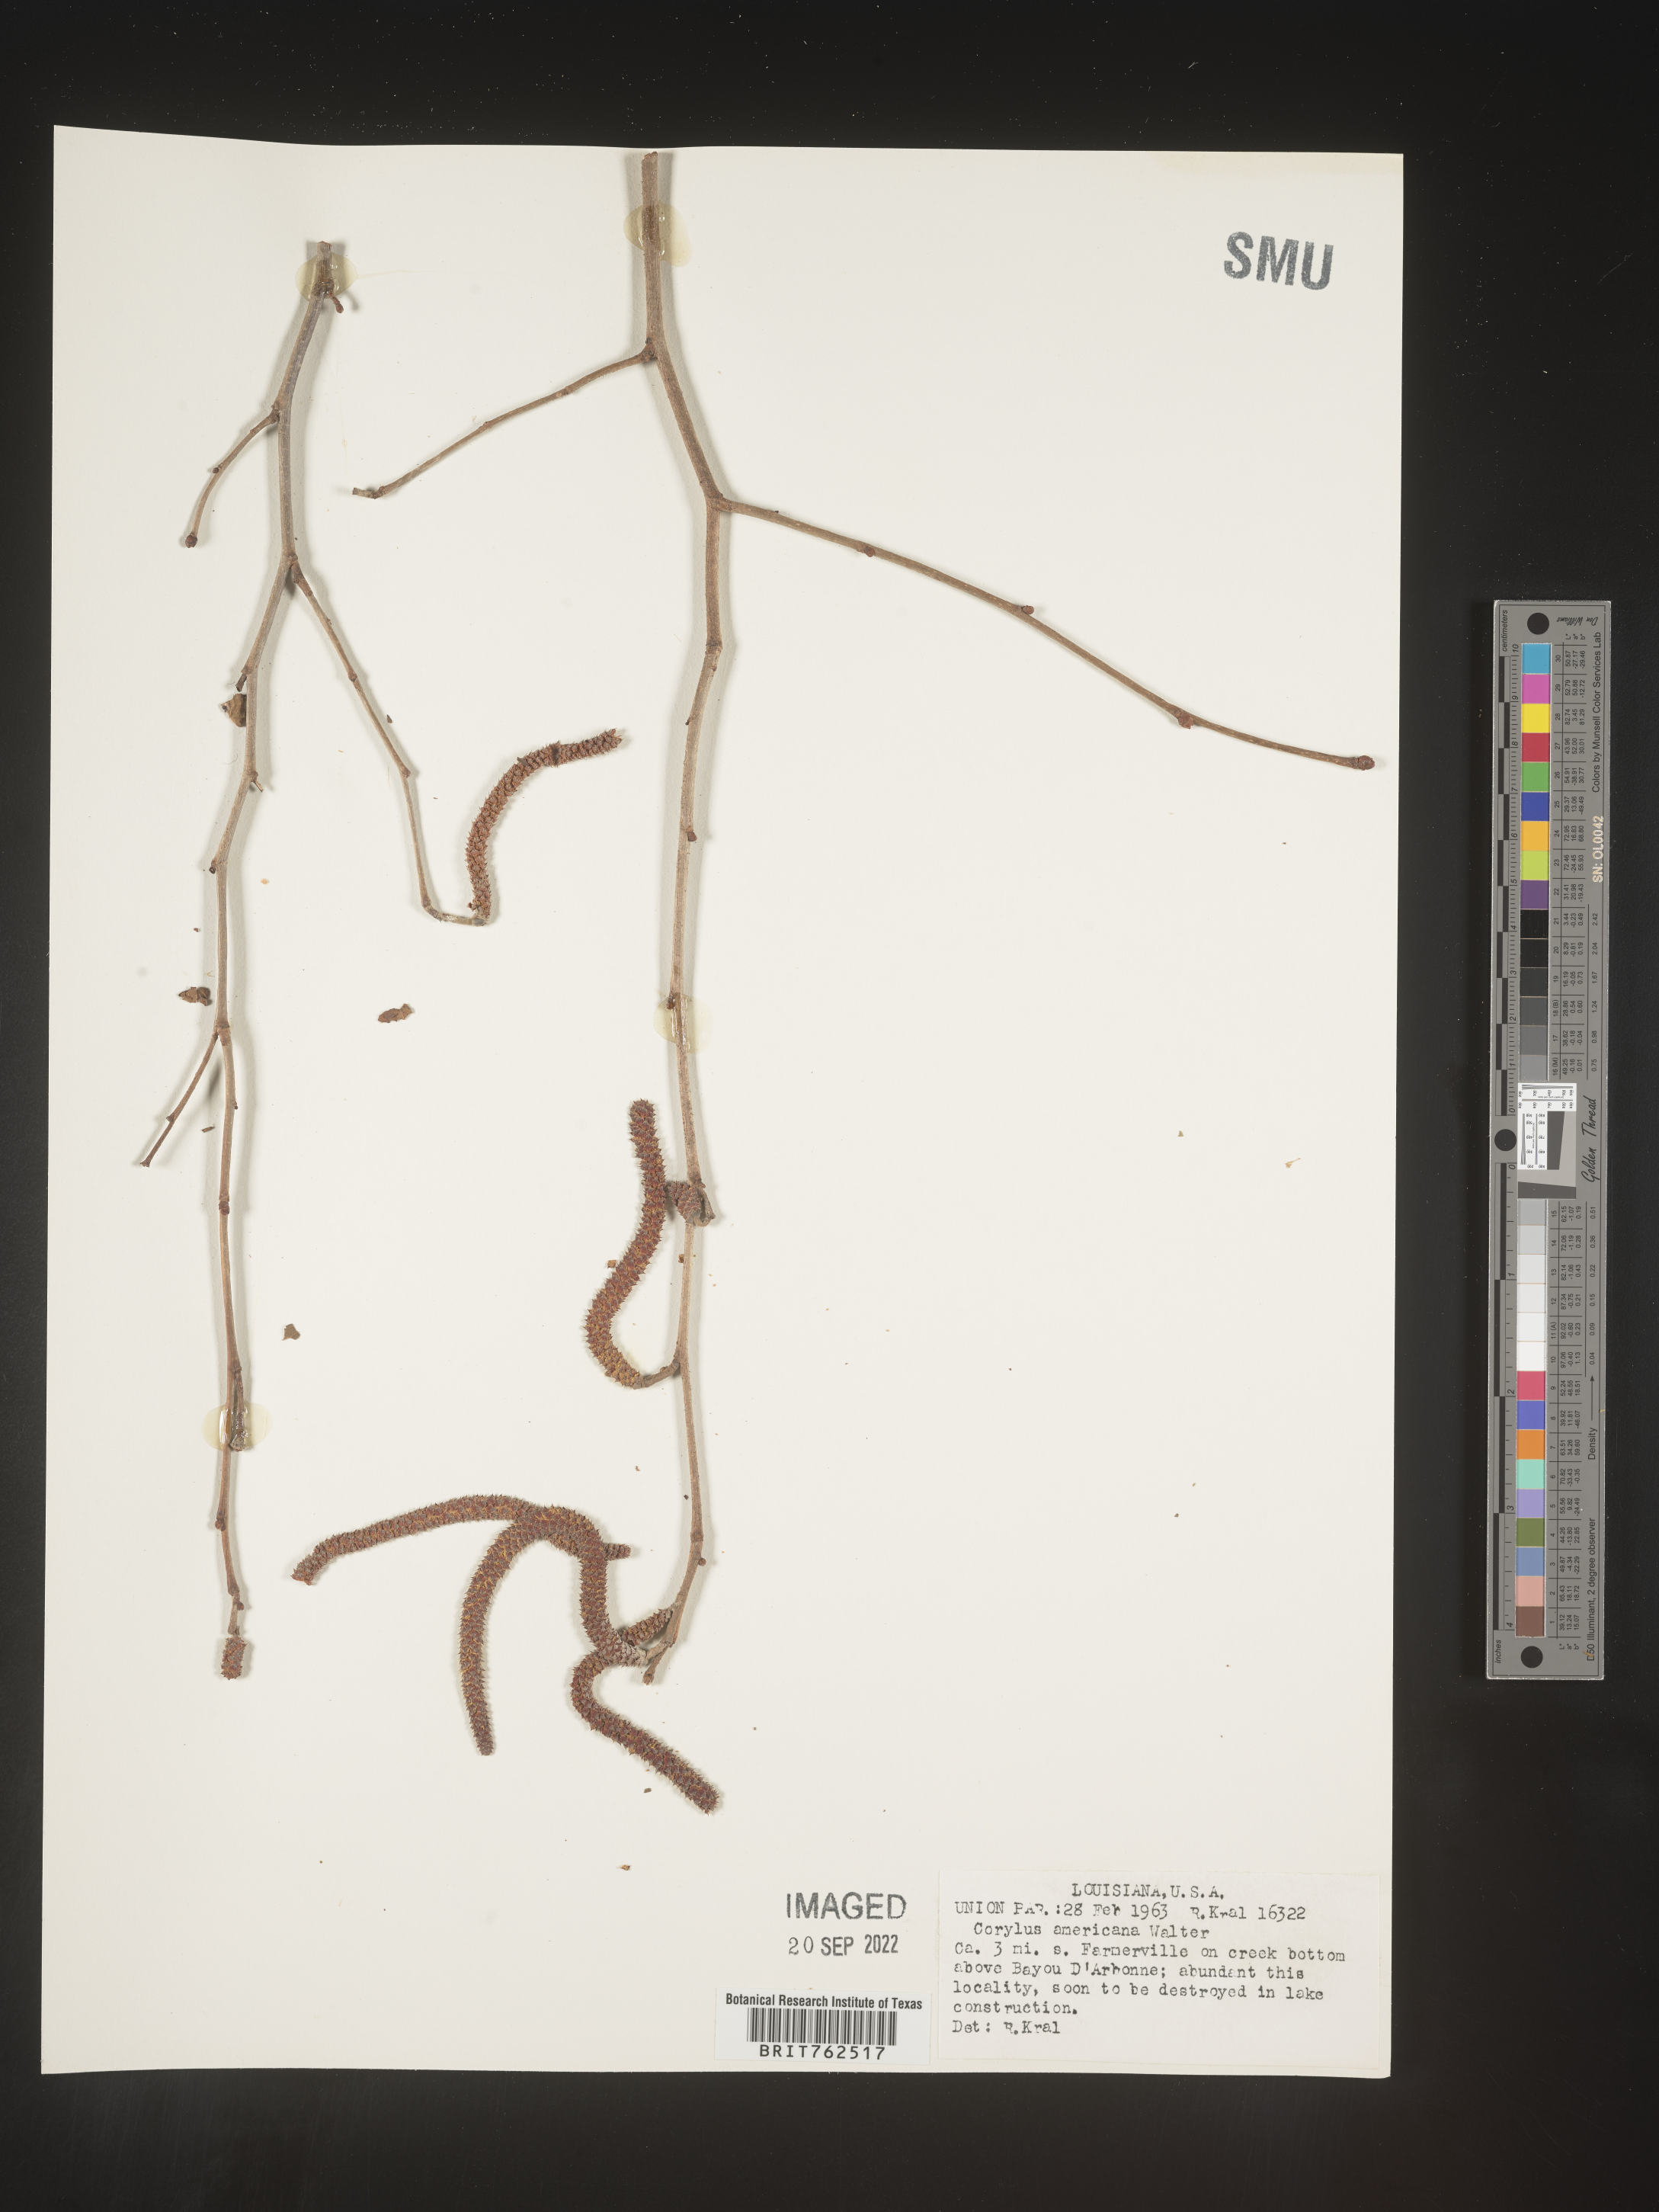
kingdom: Plantae
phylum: Tracheophyta
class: Magnoliopsida
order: Fagales
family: Betulaceae
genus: Corylus
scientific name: Corylus americana
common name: American hazel
